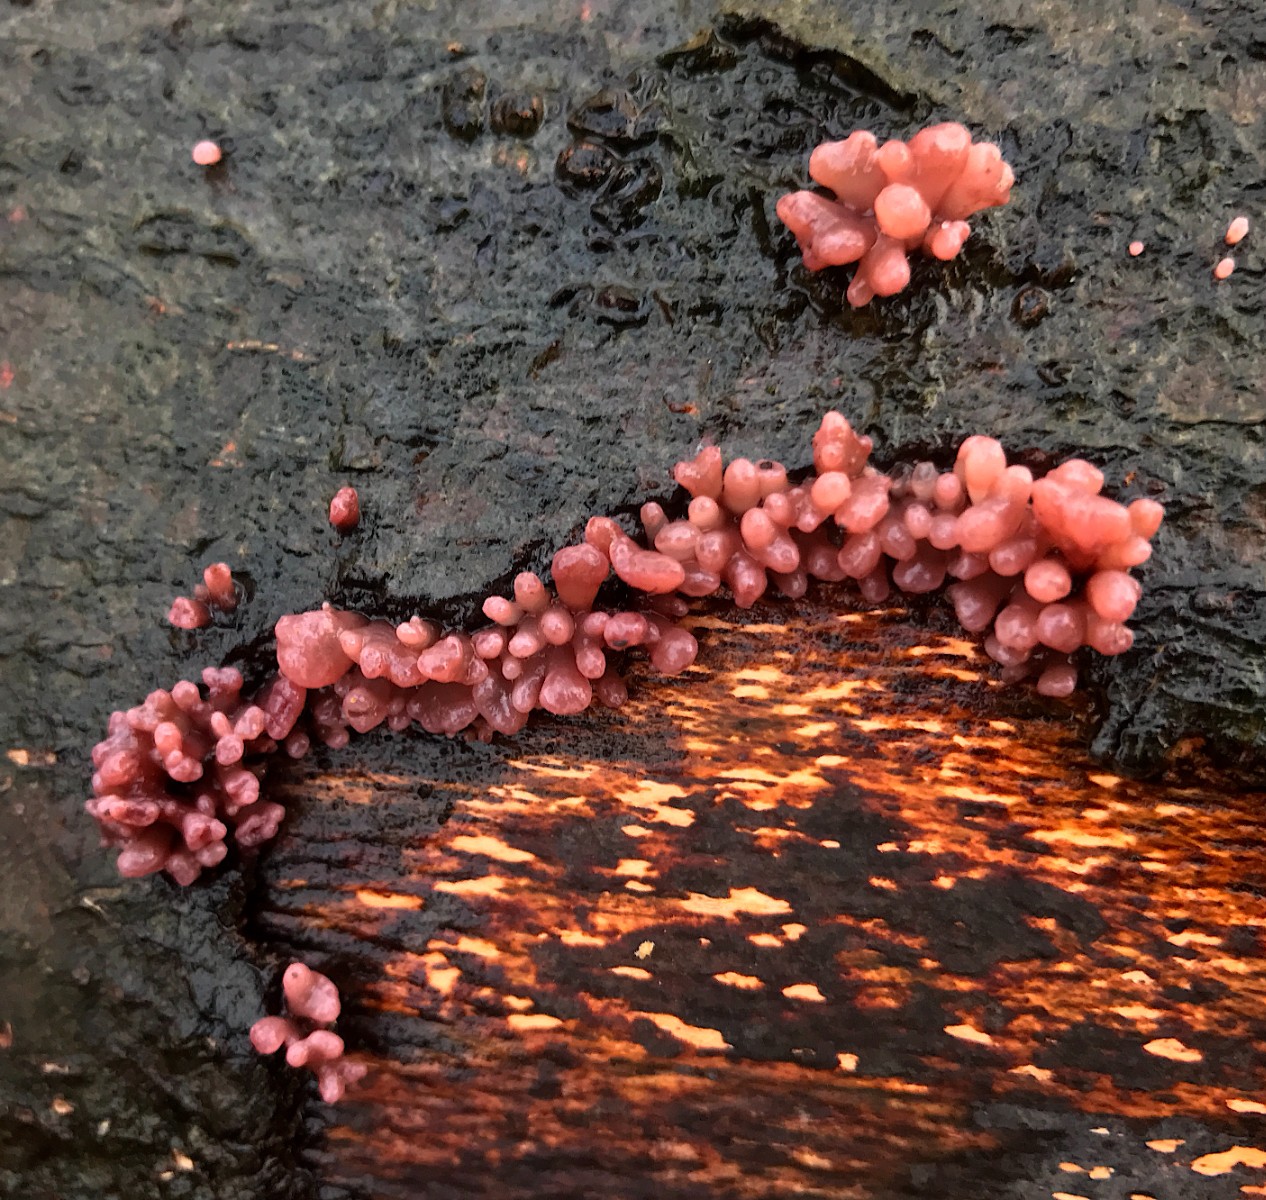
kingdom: Fungi
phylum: Ascomycota
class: Leotiomycetes
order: Helotiales
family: Gelatinodiscaceae
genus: Ascocoryne
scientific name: Ascocoryne sarcoides
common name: rødlilla sejskive
